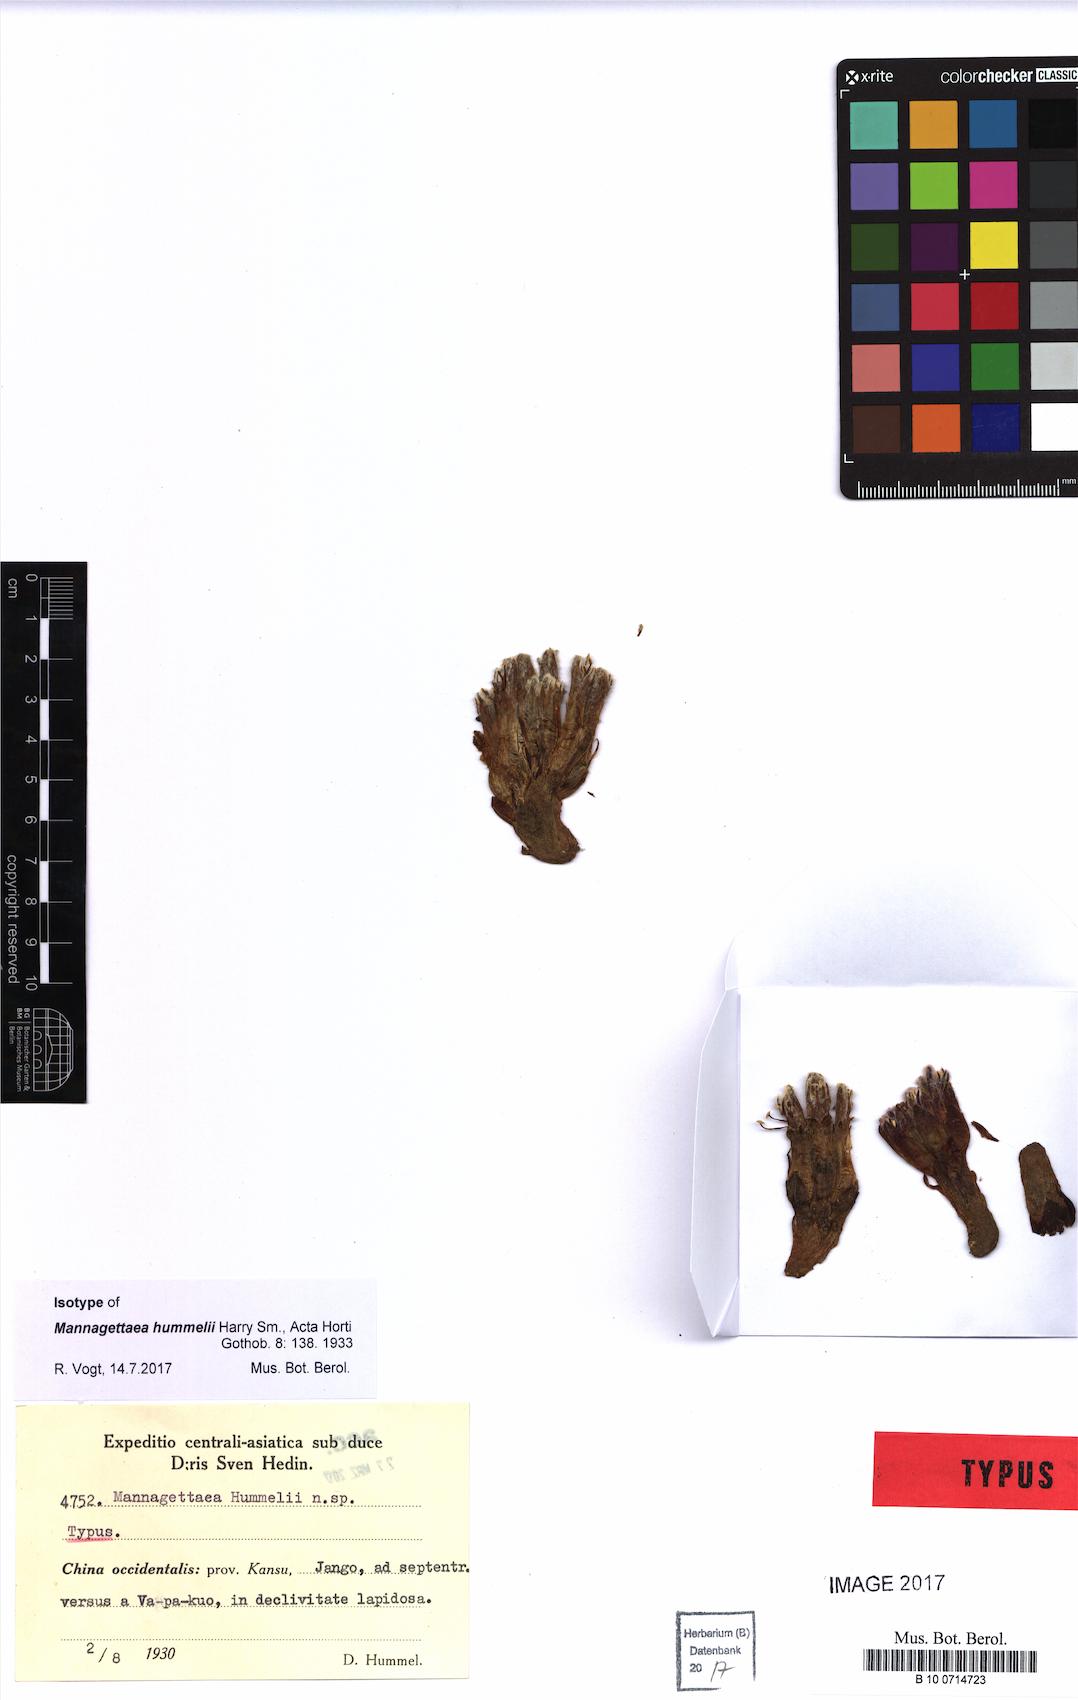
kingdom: Plantae
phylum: Tracheophyta
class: Magnoliopsida
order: Lamiales
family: Orobanchaceae
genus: Mannagettaea
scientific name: Mannagettaea hummelii
